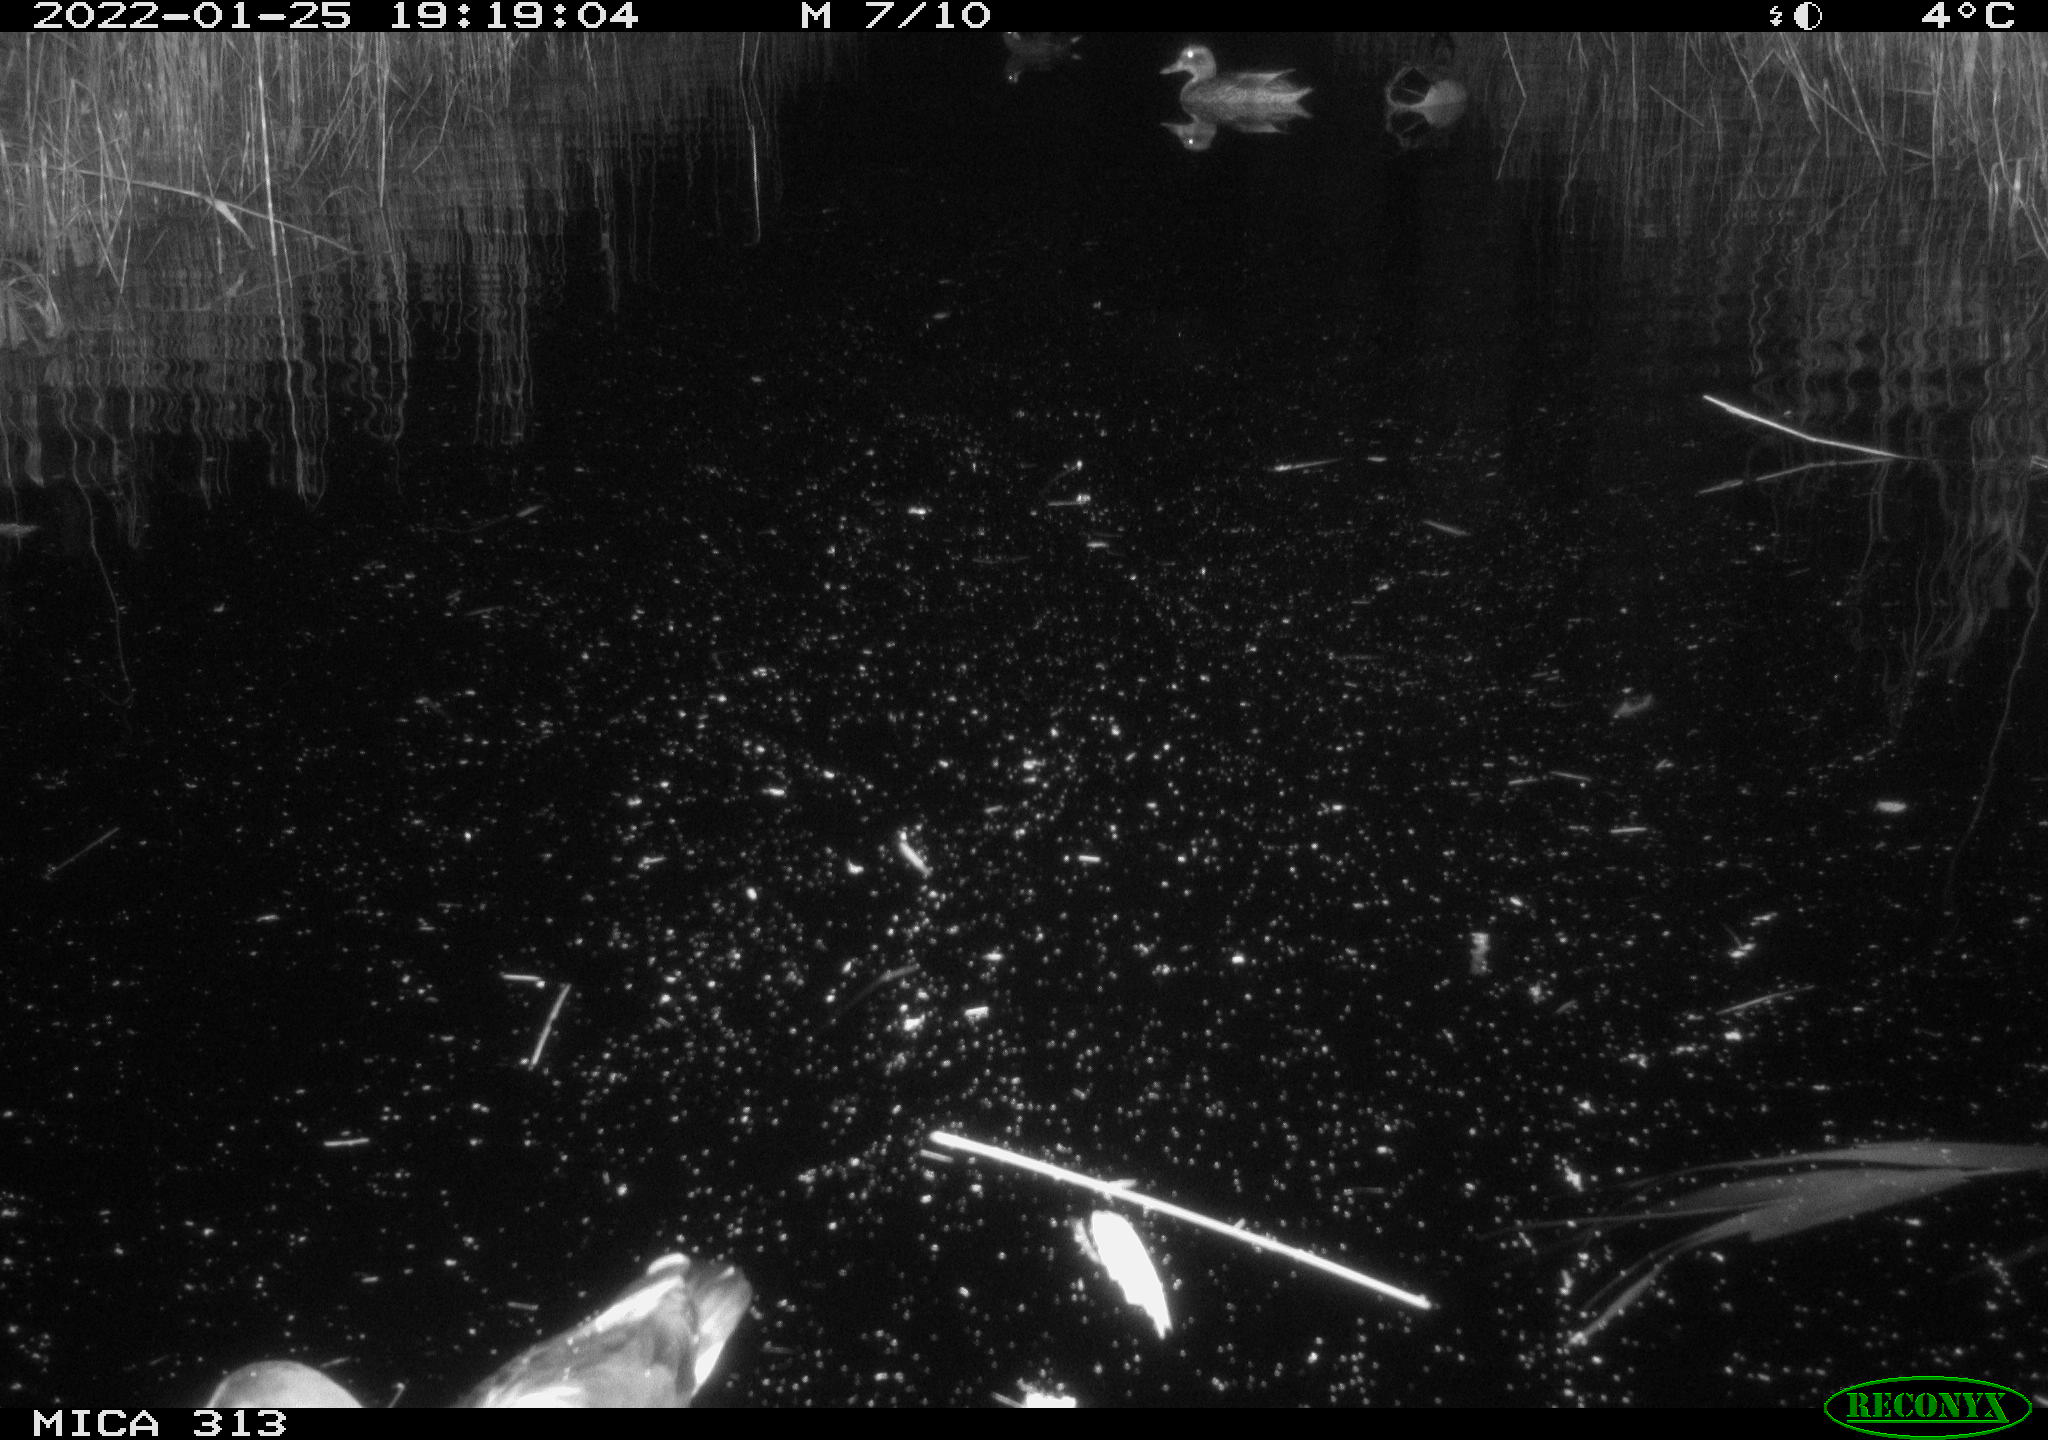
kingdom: Animalia
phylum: Chordata
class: Aves
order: Gruiformes
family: Rallidae
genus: Gallinula
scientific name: Gallinula chloropus
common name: Common moorhen
